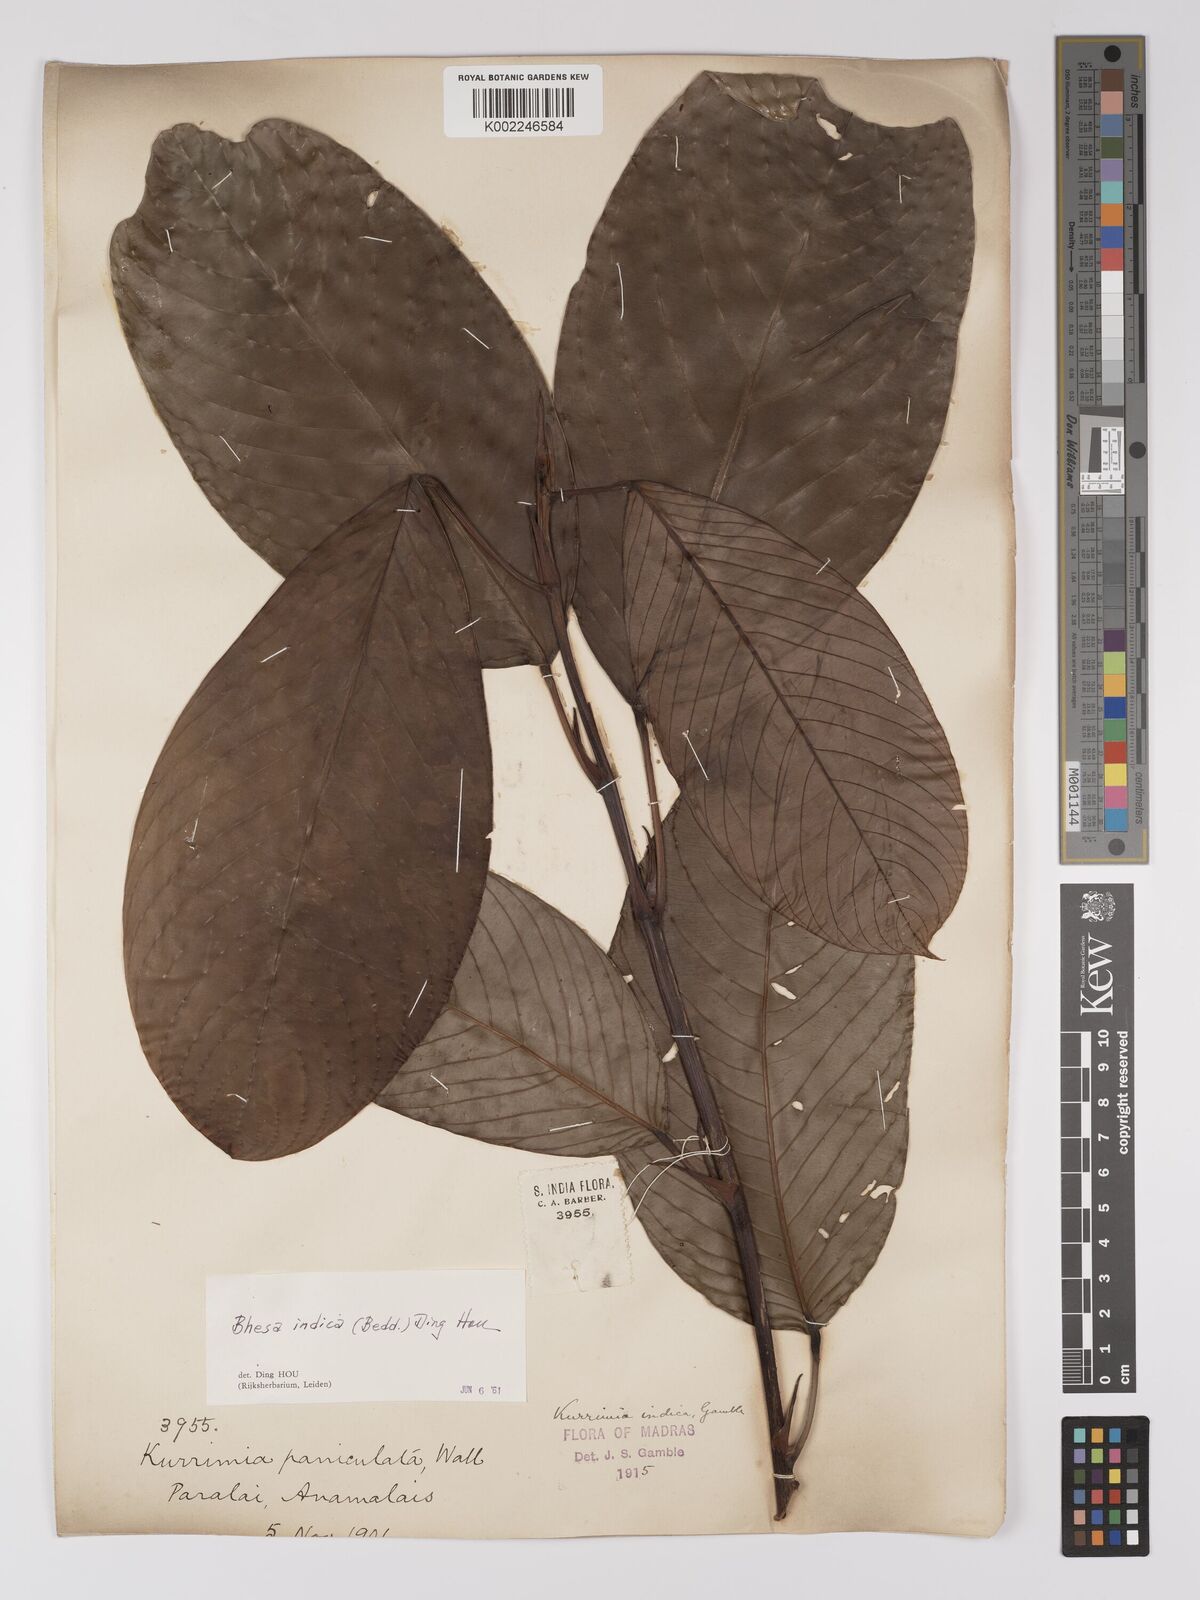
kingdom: Plantae
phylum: Tracheophyta
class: Magnoliopsida
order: Malpighiales
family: Centroplacaceae
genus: Bhesa
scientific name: Bhesa indica
